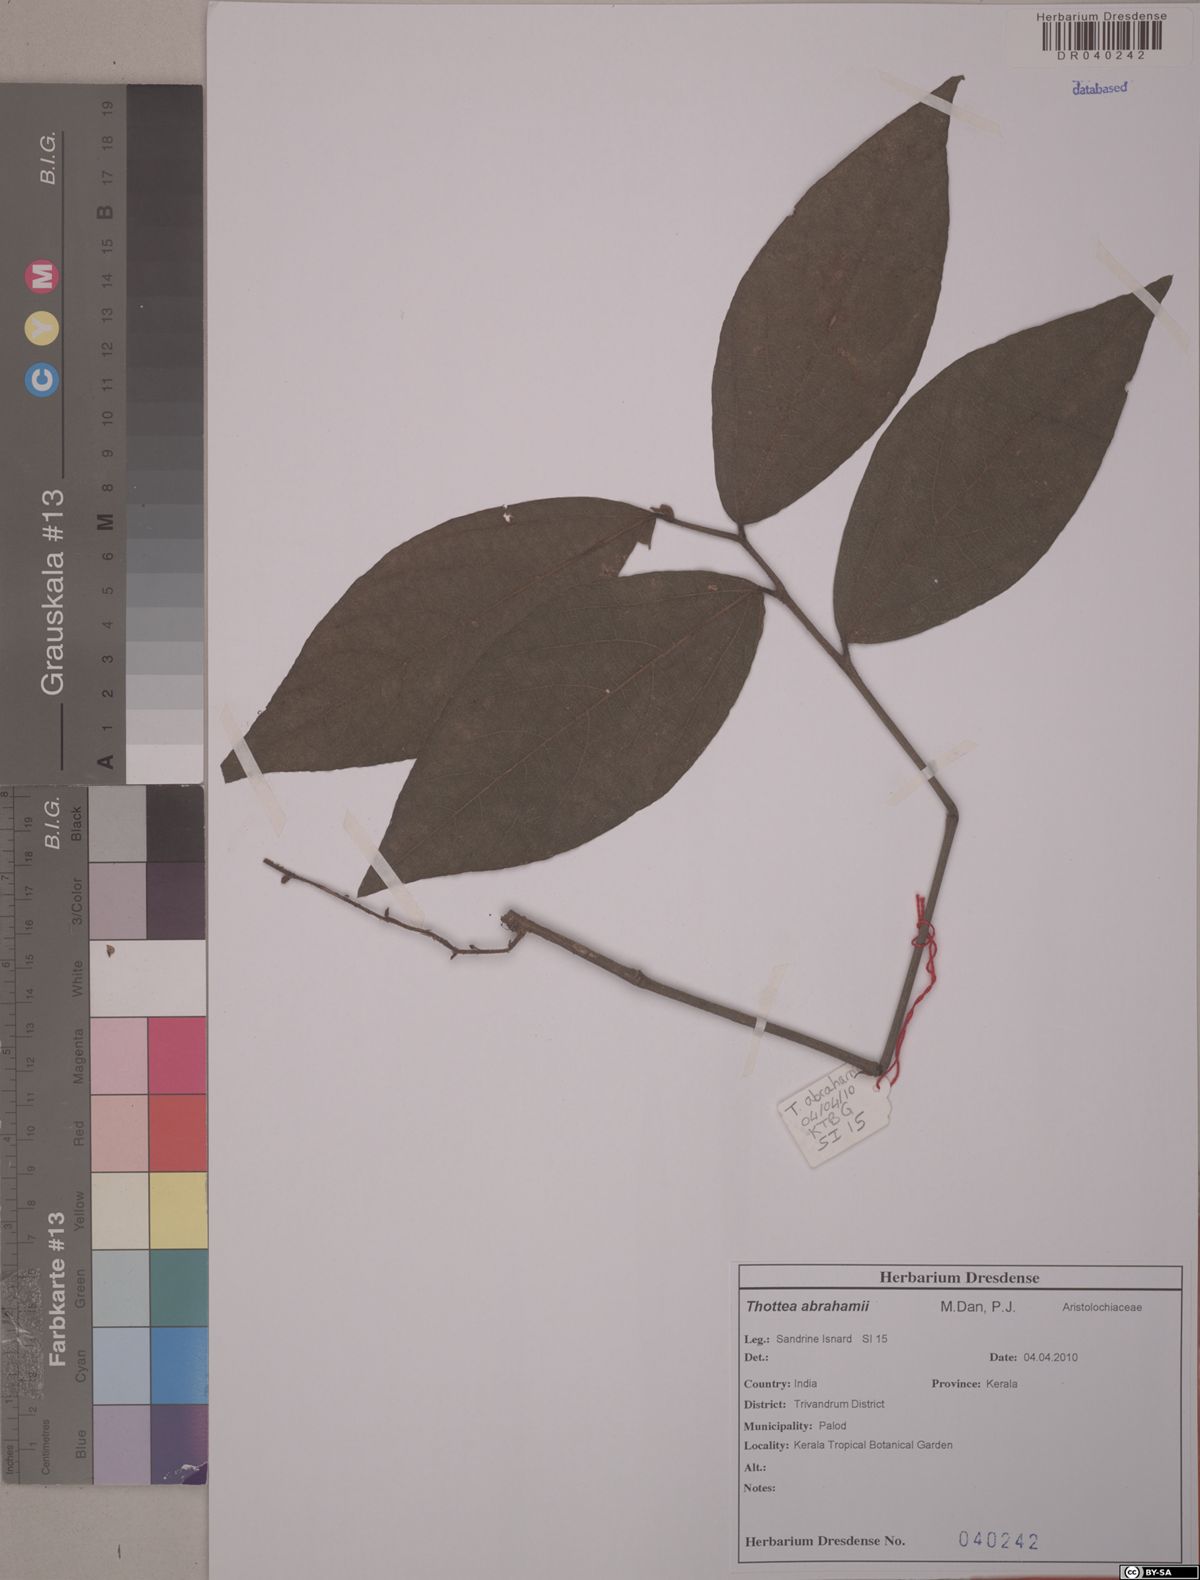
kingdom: Plantae
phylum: Tracheophyta
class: Magnoliopsida
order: Piperales
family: Aristolochiaceae
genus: Thottea
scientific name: Thottea abrahamii
